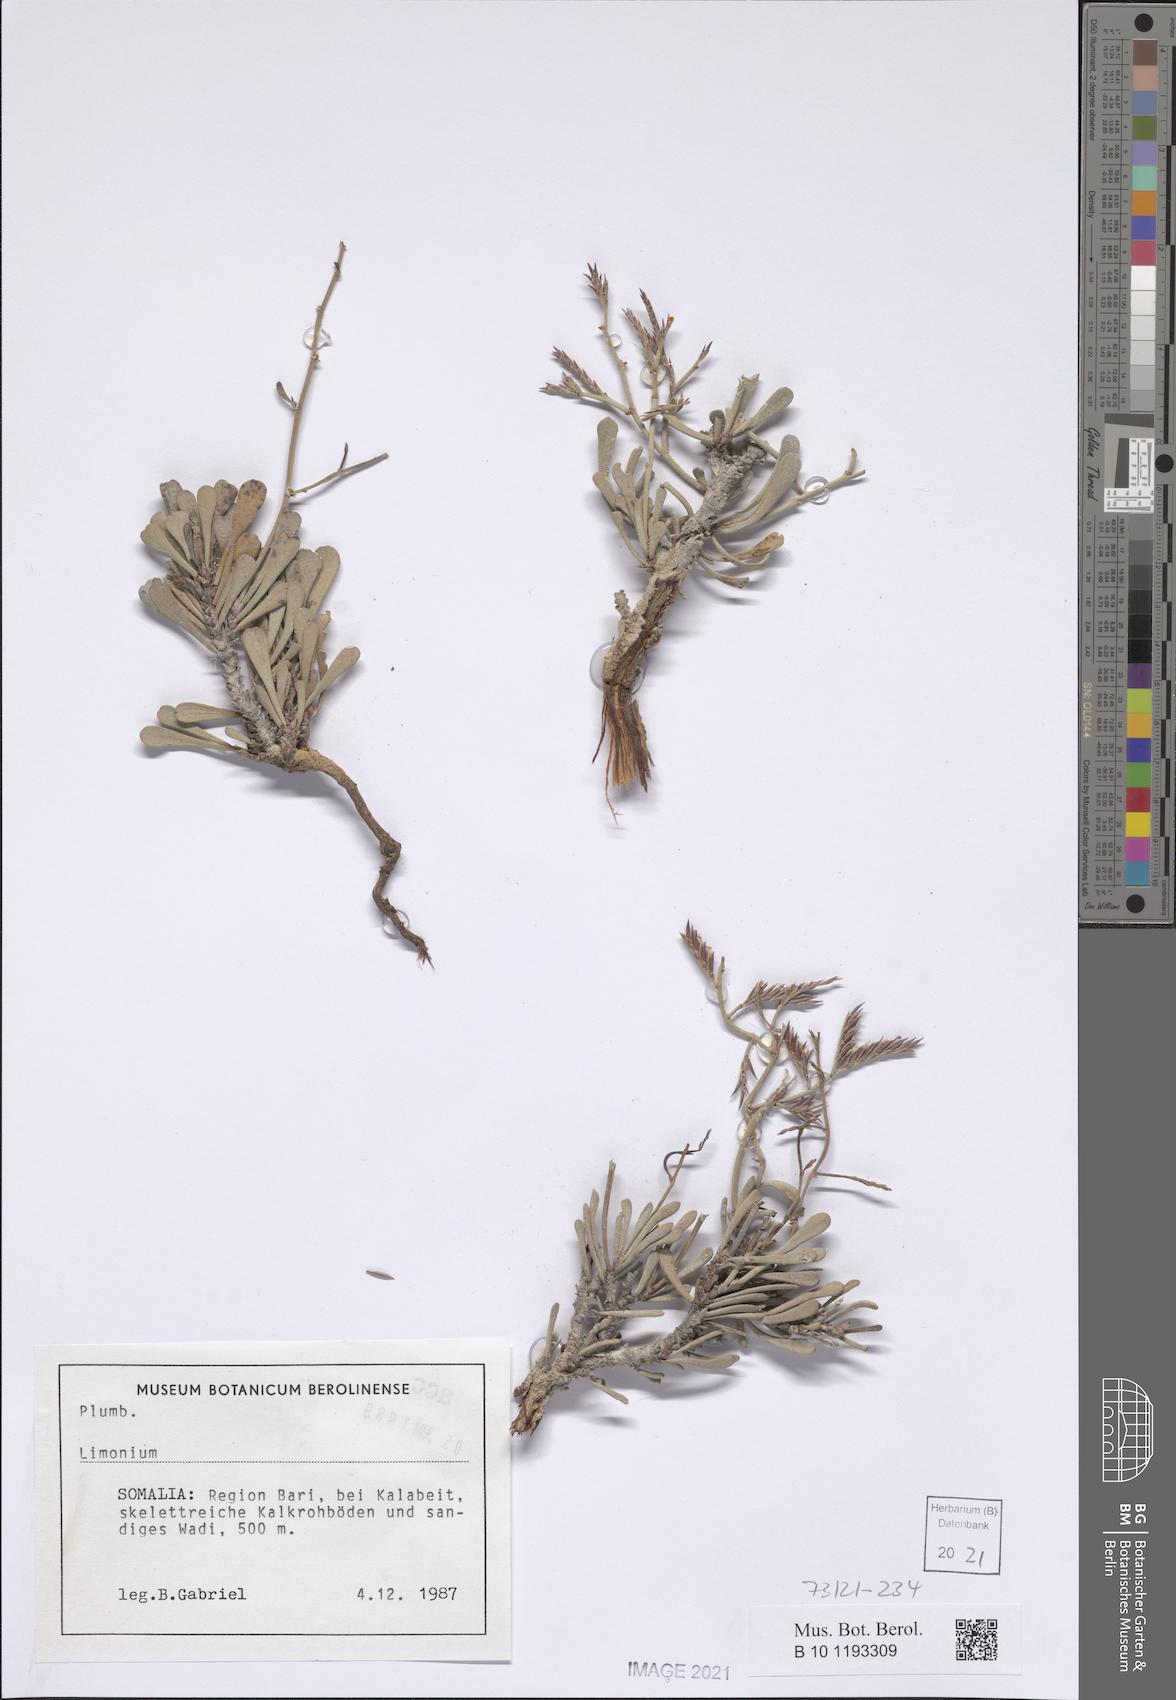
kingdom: Plantae
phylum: Tracheophyta
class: Magnoliopsida
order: Caryophyllales
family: Plumbaginaceae
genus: Limonium
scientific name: Limonium
